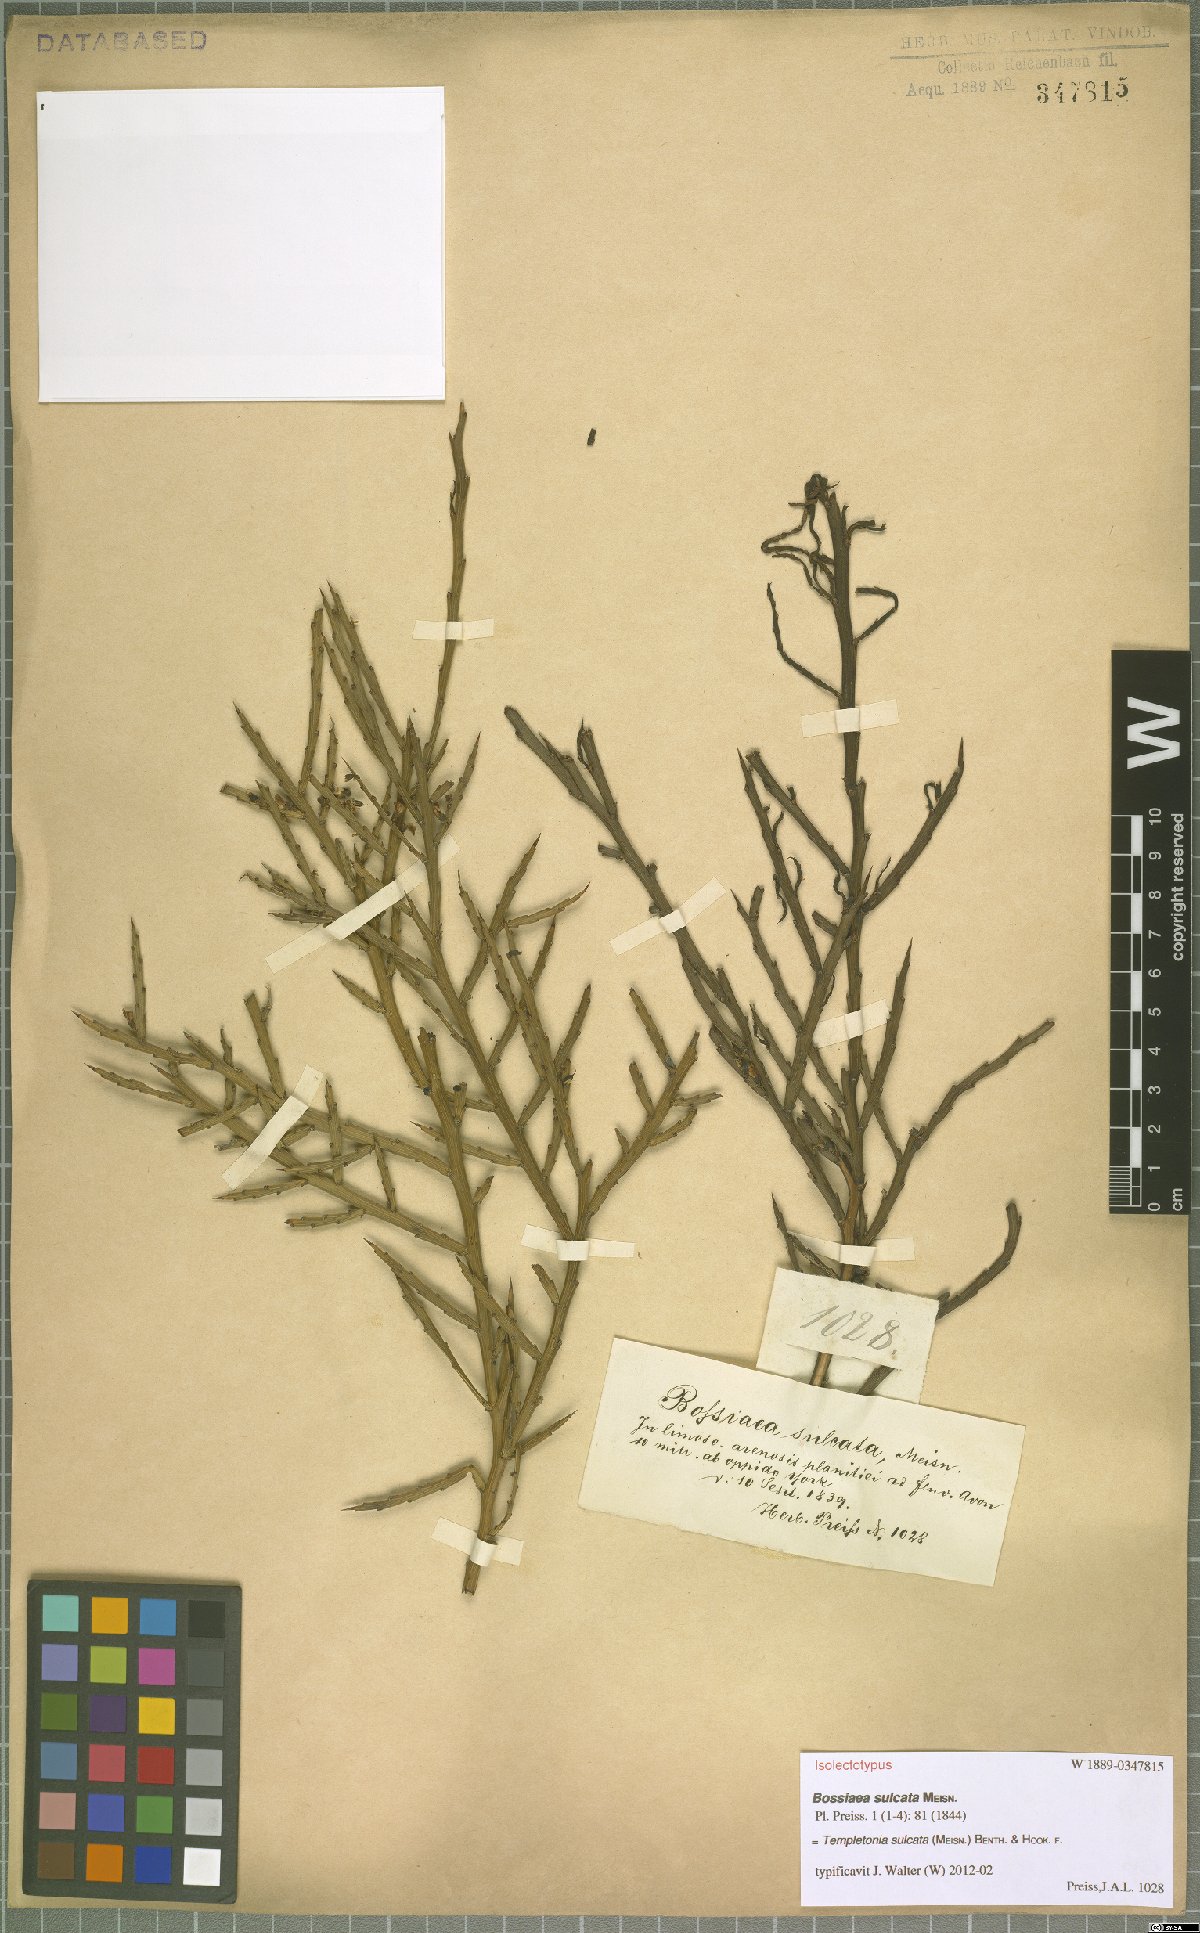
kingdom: Plantae
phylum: Tracheophyta
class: Magnoliopsida
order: Fabales
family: Fabaceae
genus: Templetonia
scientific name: Templetonia sulcata
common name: Flat mallee-pea
